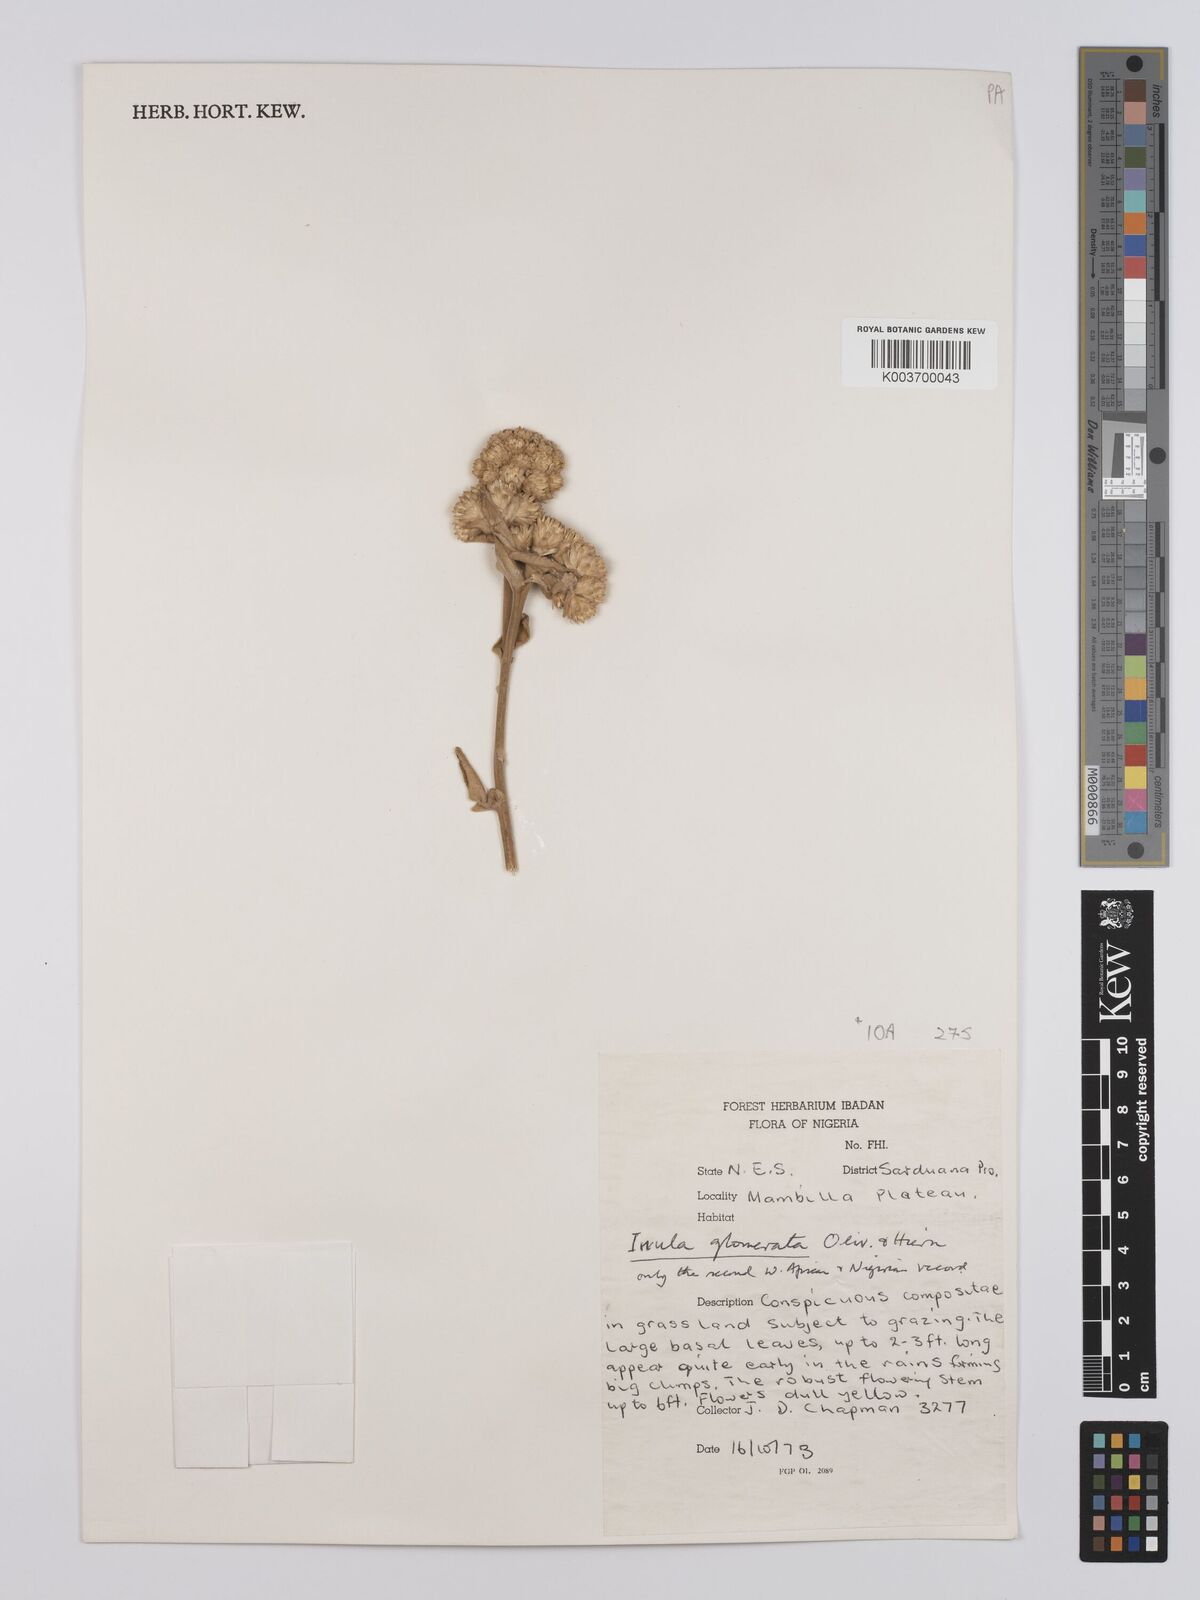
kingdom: Plantae
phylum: Tracheophyta
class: Magnoliopsida
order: Asterales
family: Asteraceae
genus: Inula
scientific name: Inula glomerata
